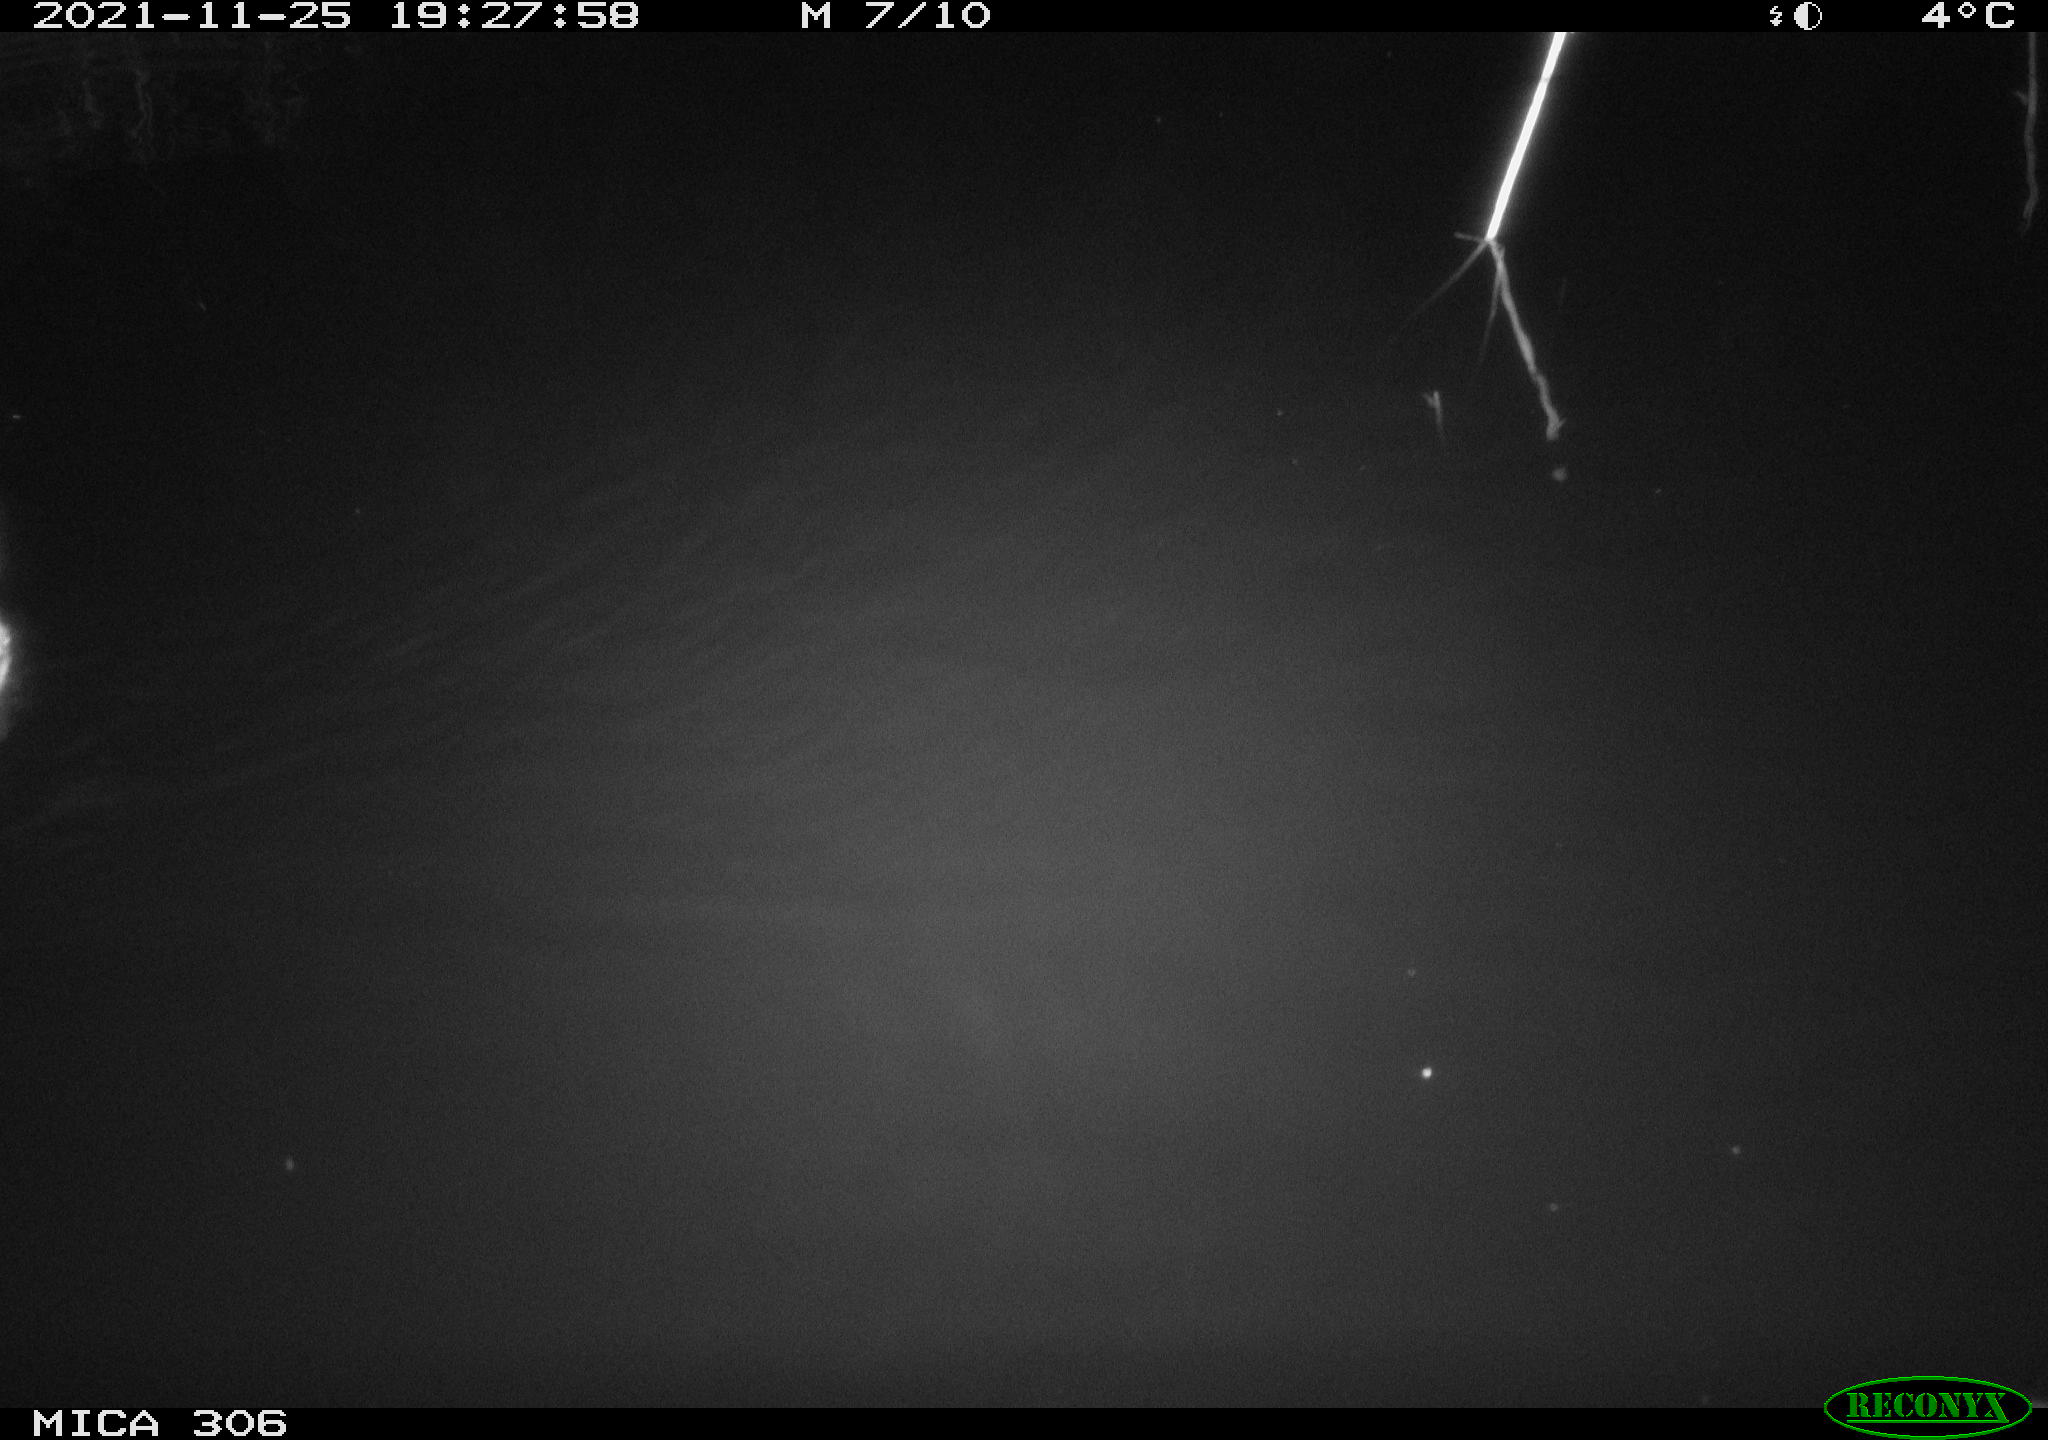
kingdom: Animalia
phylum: Chordata
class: Aves
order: Gruiformes
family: Rallidae
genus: Fulica
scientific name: Fulica atra
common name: Eurasian coot
